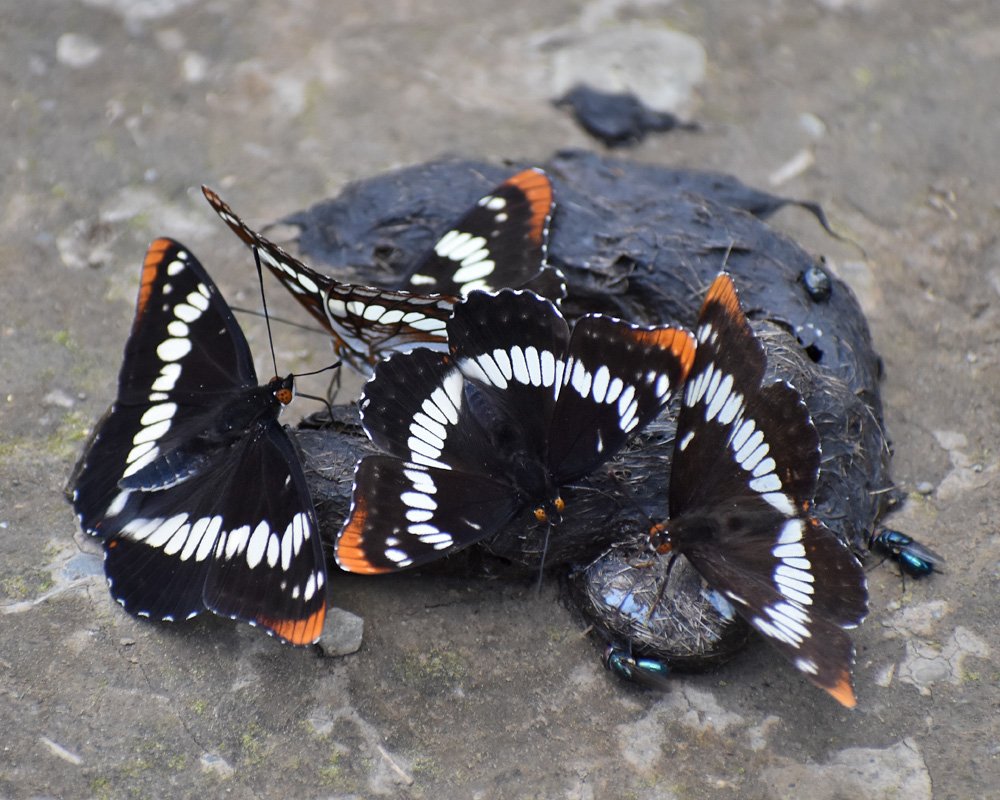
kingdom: Animalia
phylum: Arthropoda
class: Insecta
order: Lepidoptera
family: Nymphalidae
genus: Limenitis
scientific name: Limenitis lorquini
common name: Lorquin's Admiral
